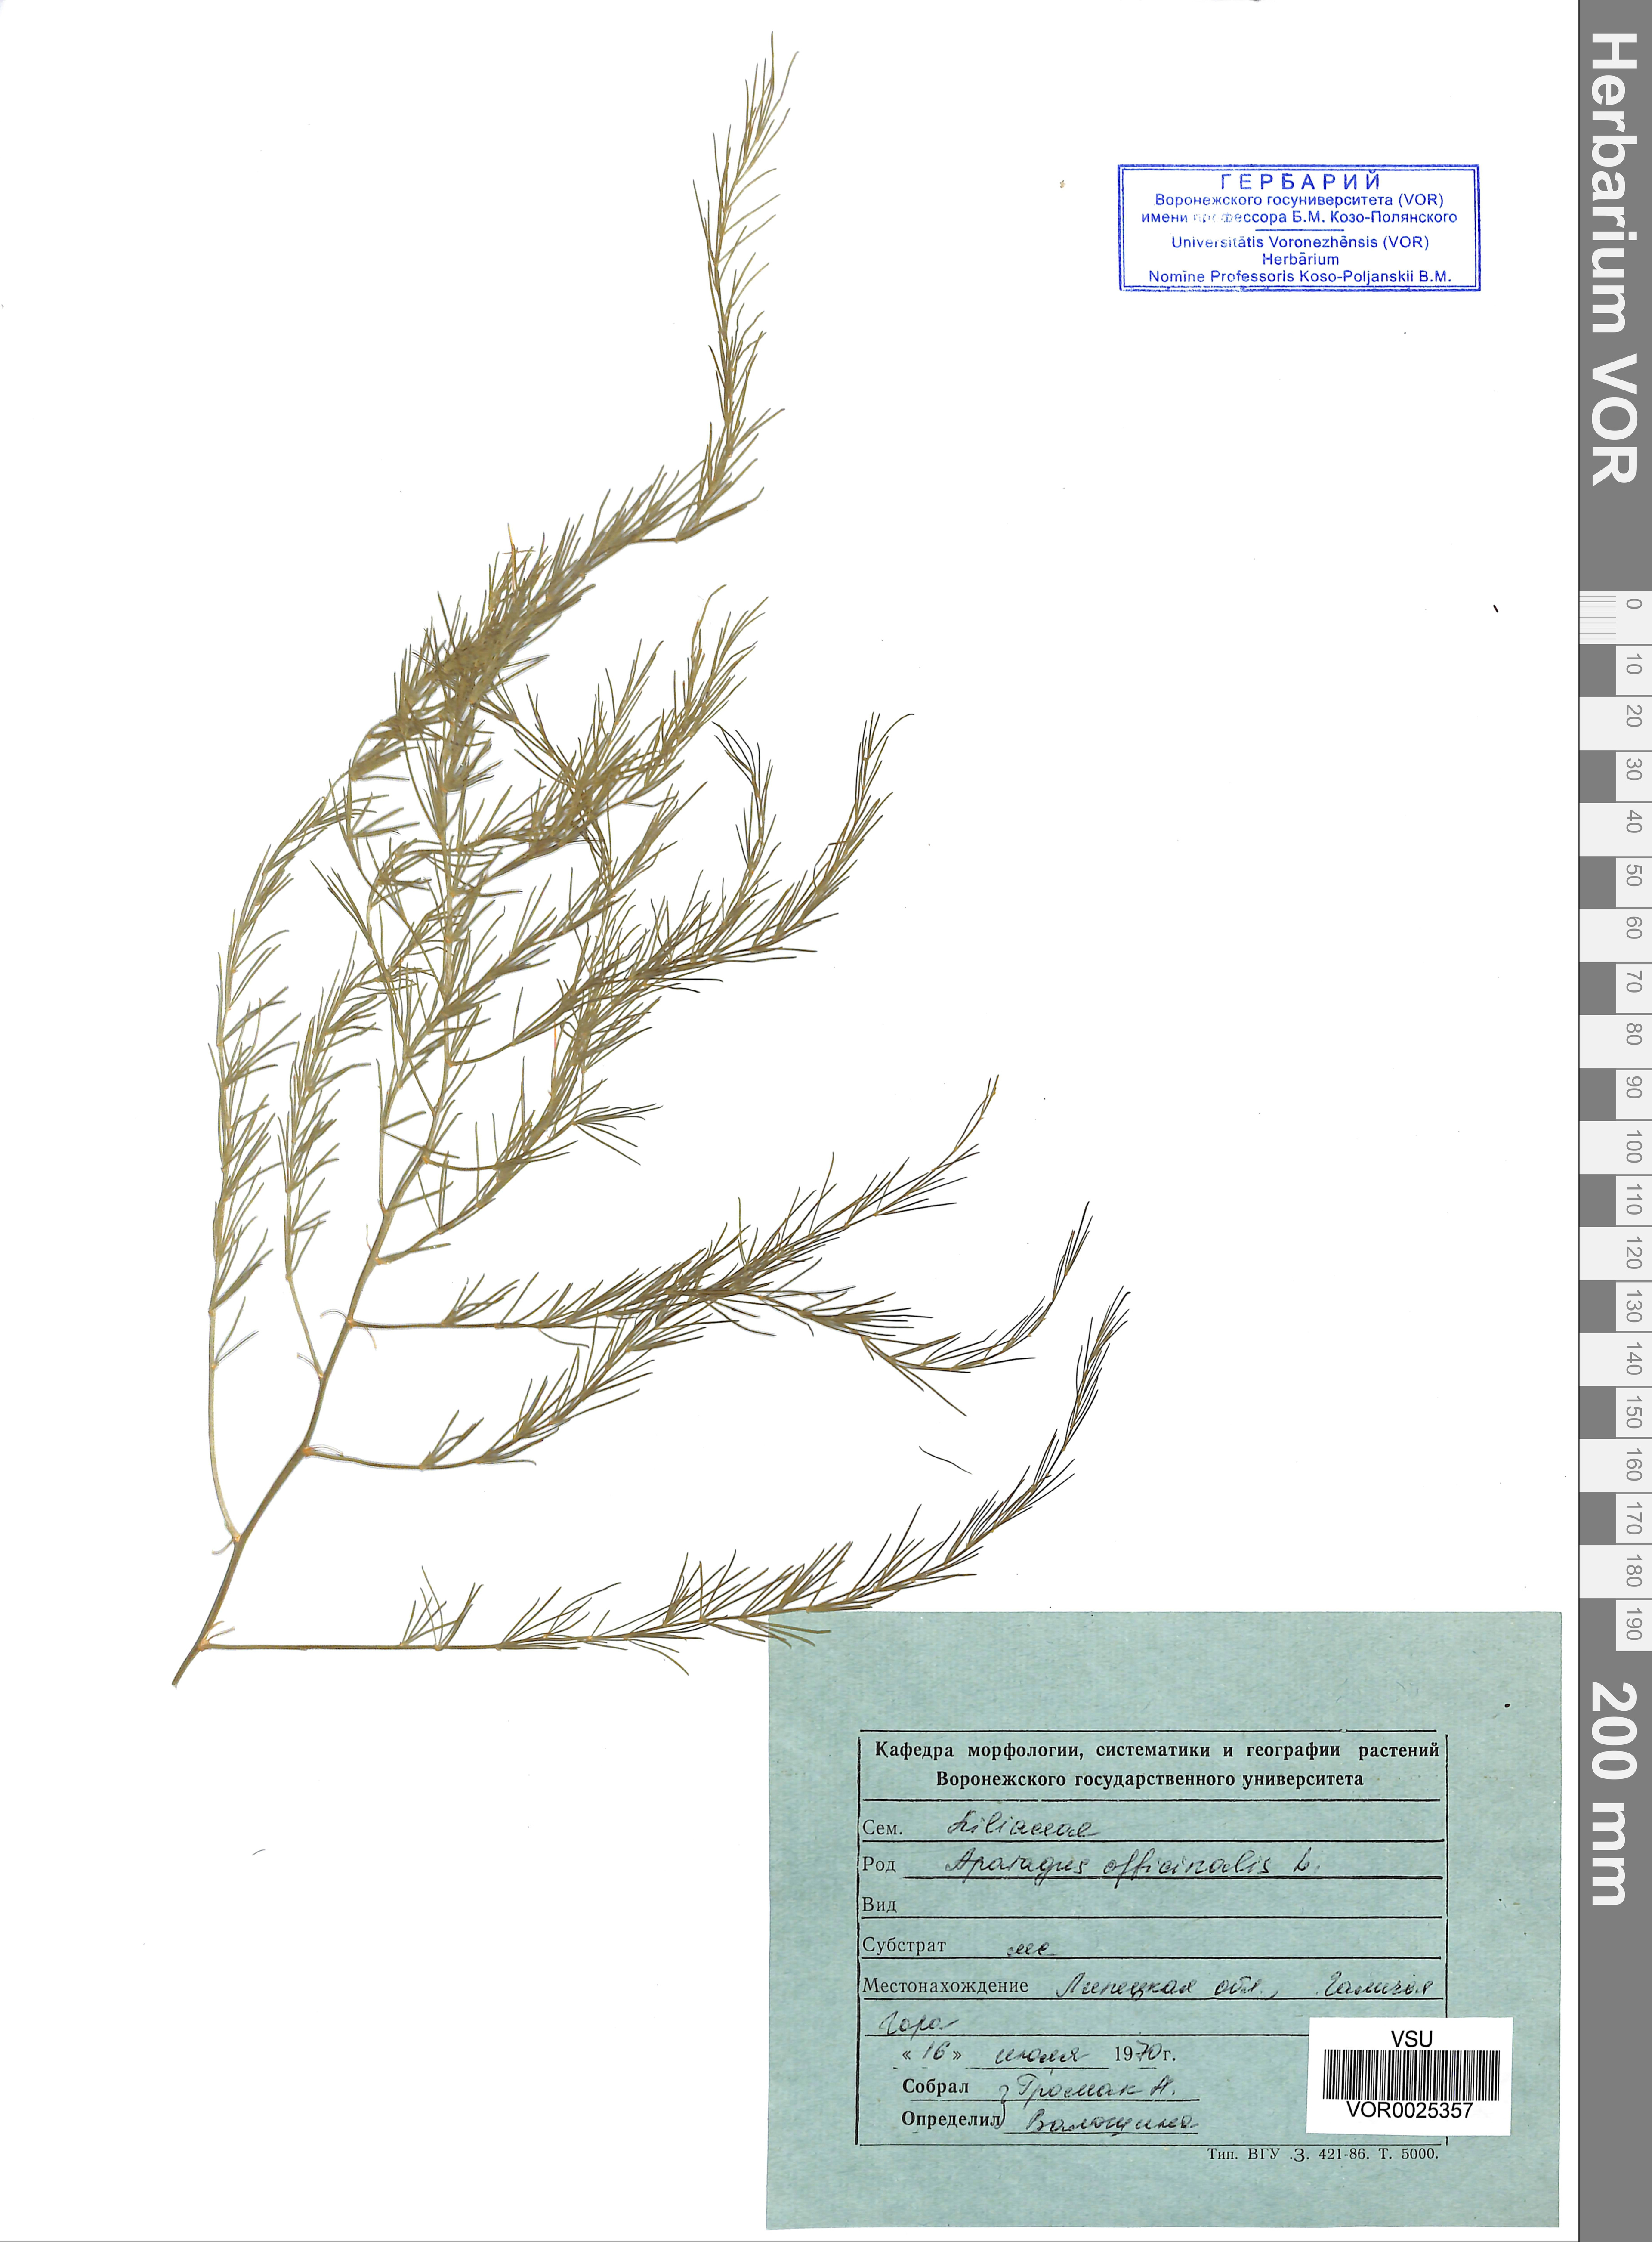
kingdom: Plantae
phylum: Tracheophyta
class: Liliopsida
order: Asparagales
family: Asparagaceae
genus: Asparagus
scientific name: Asparagus officinalis
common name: Garden asparagus
